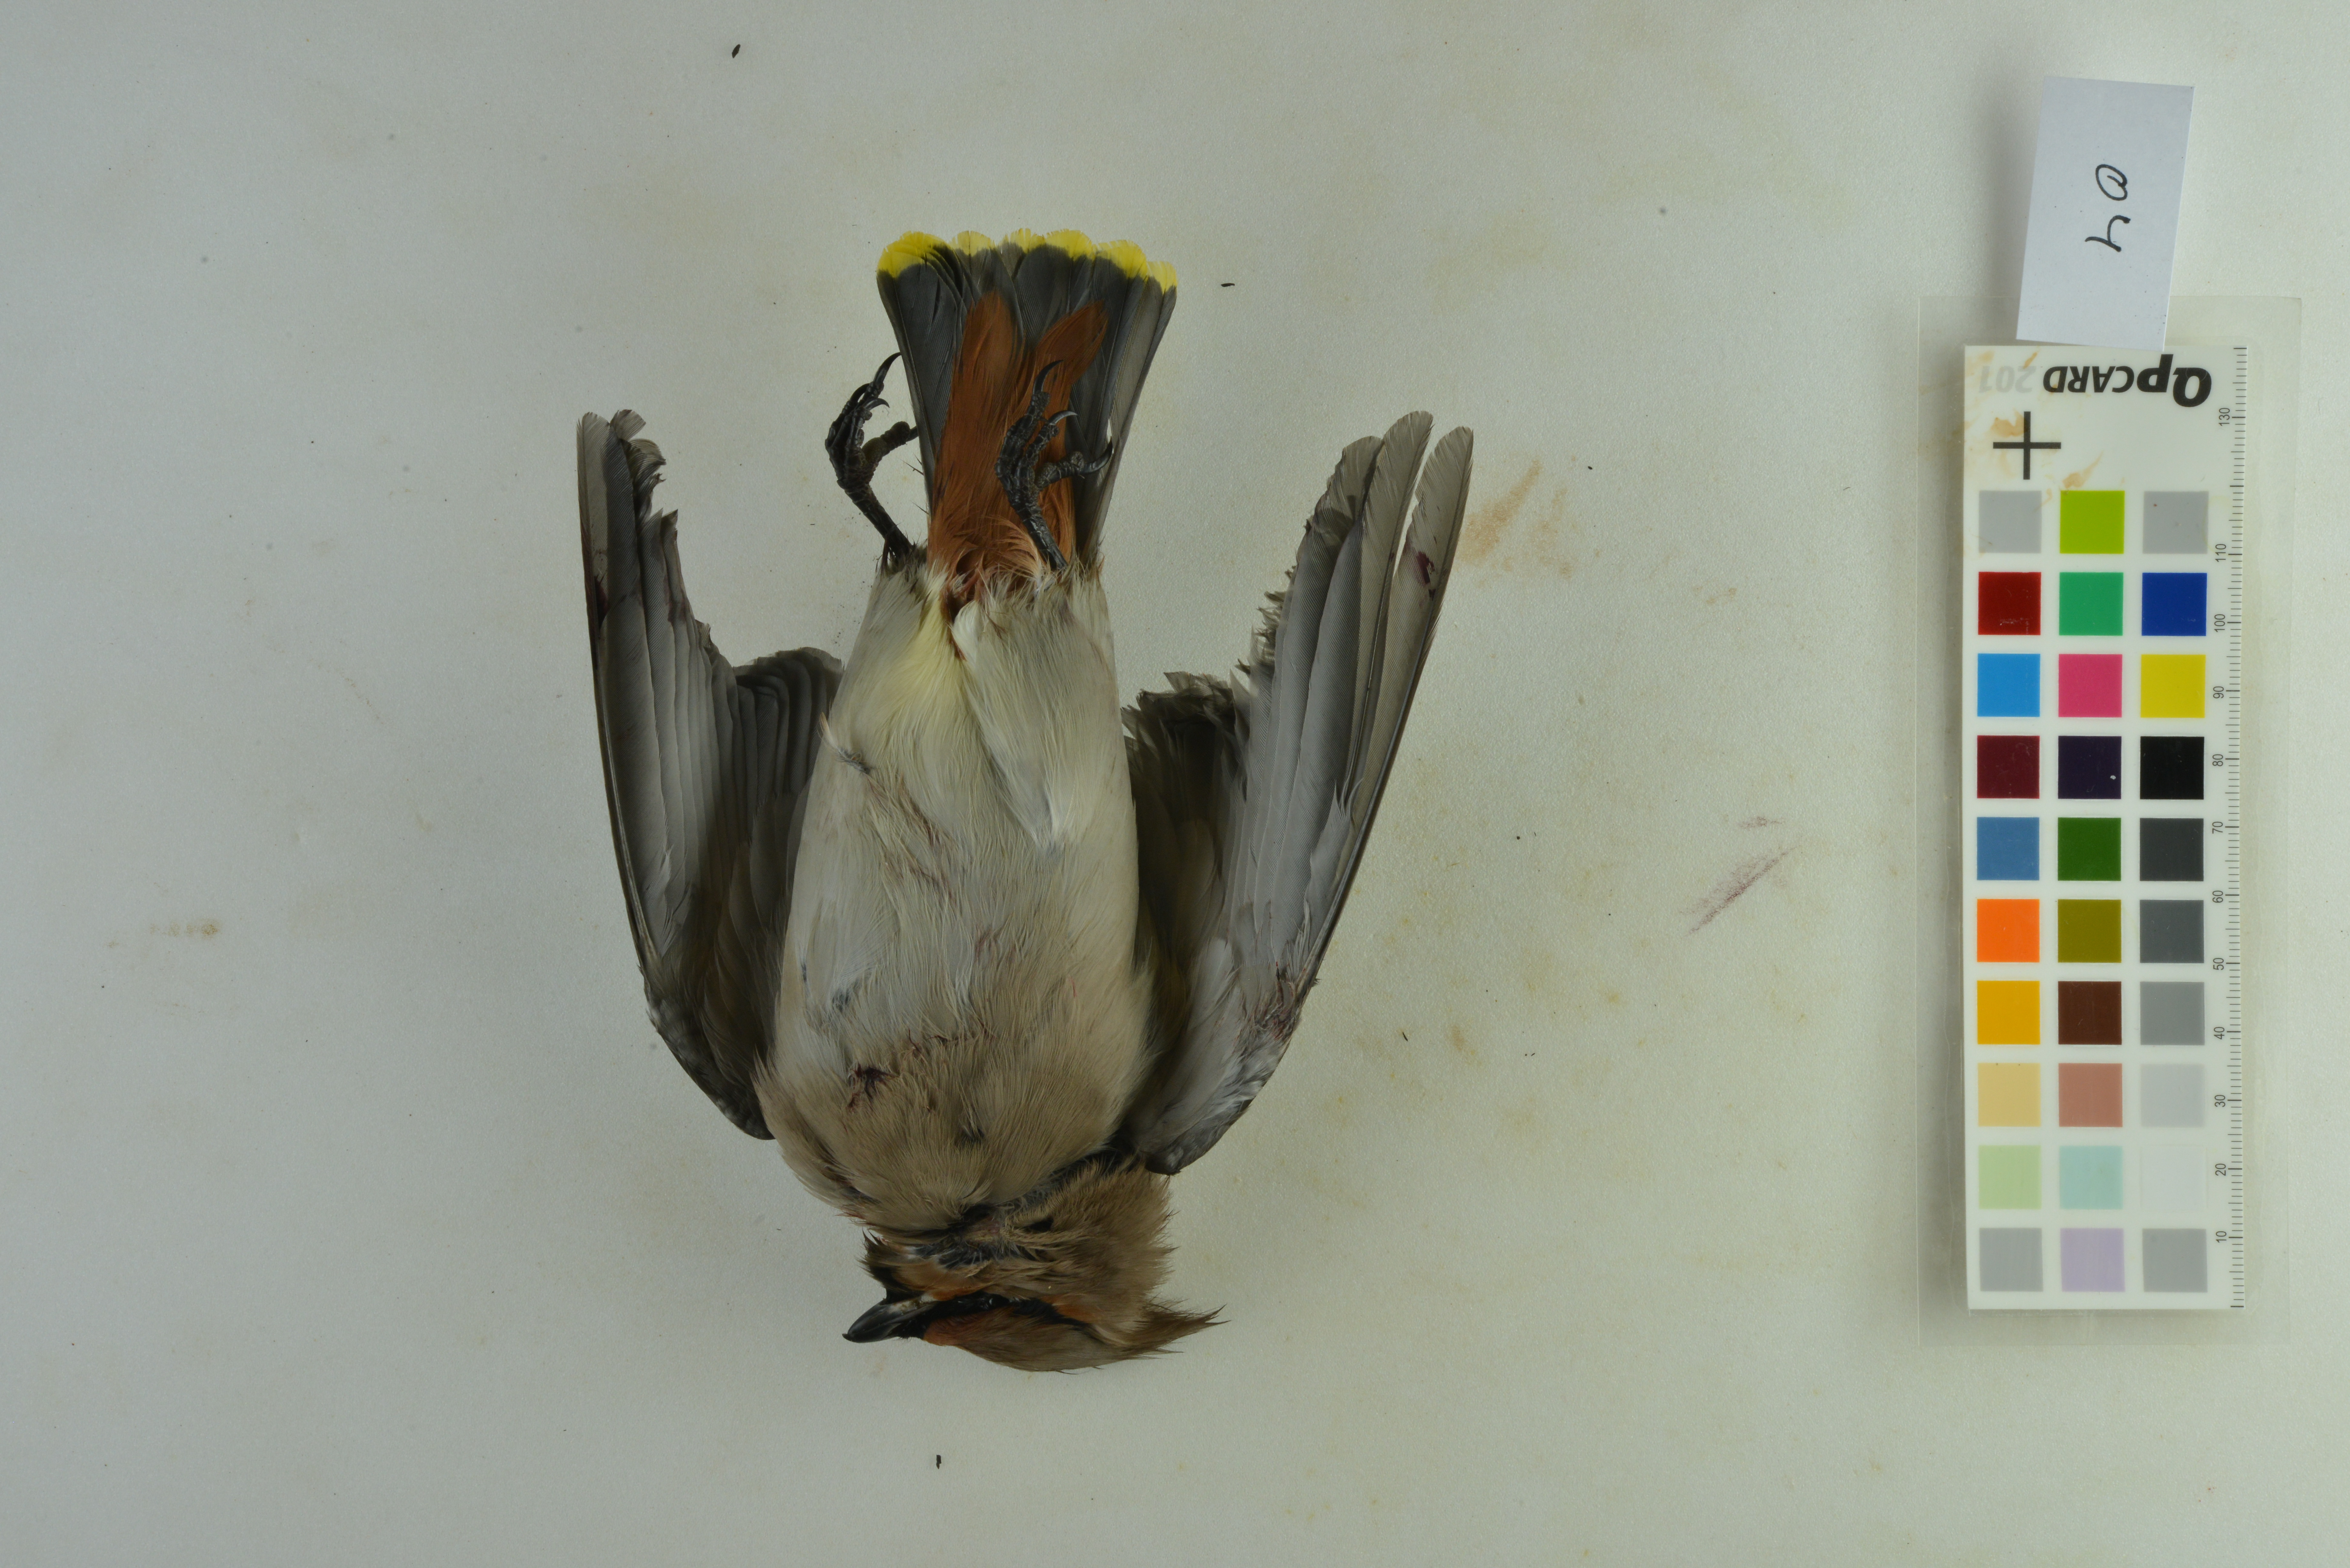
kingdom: Animalia
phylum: Chordata
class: Aves
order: Passeriformes
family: Bombycillidae
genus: Bombycilla
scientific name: Bombycilla garrulus
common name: Bohemian waxwing
